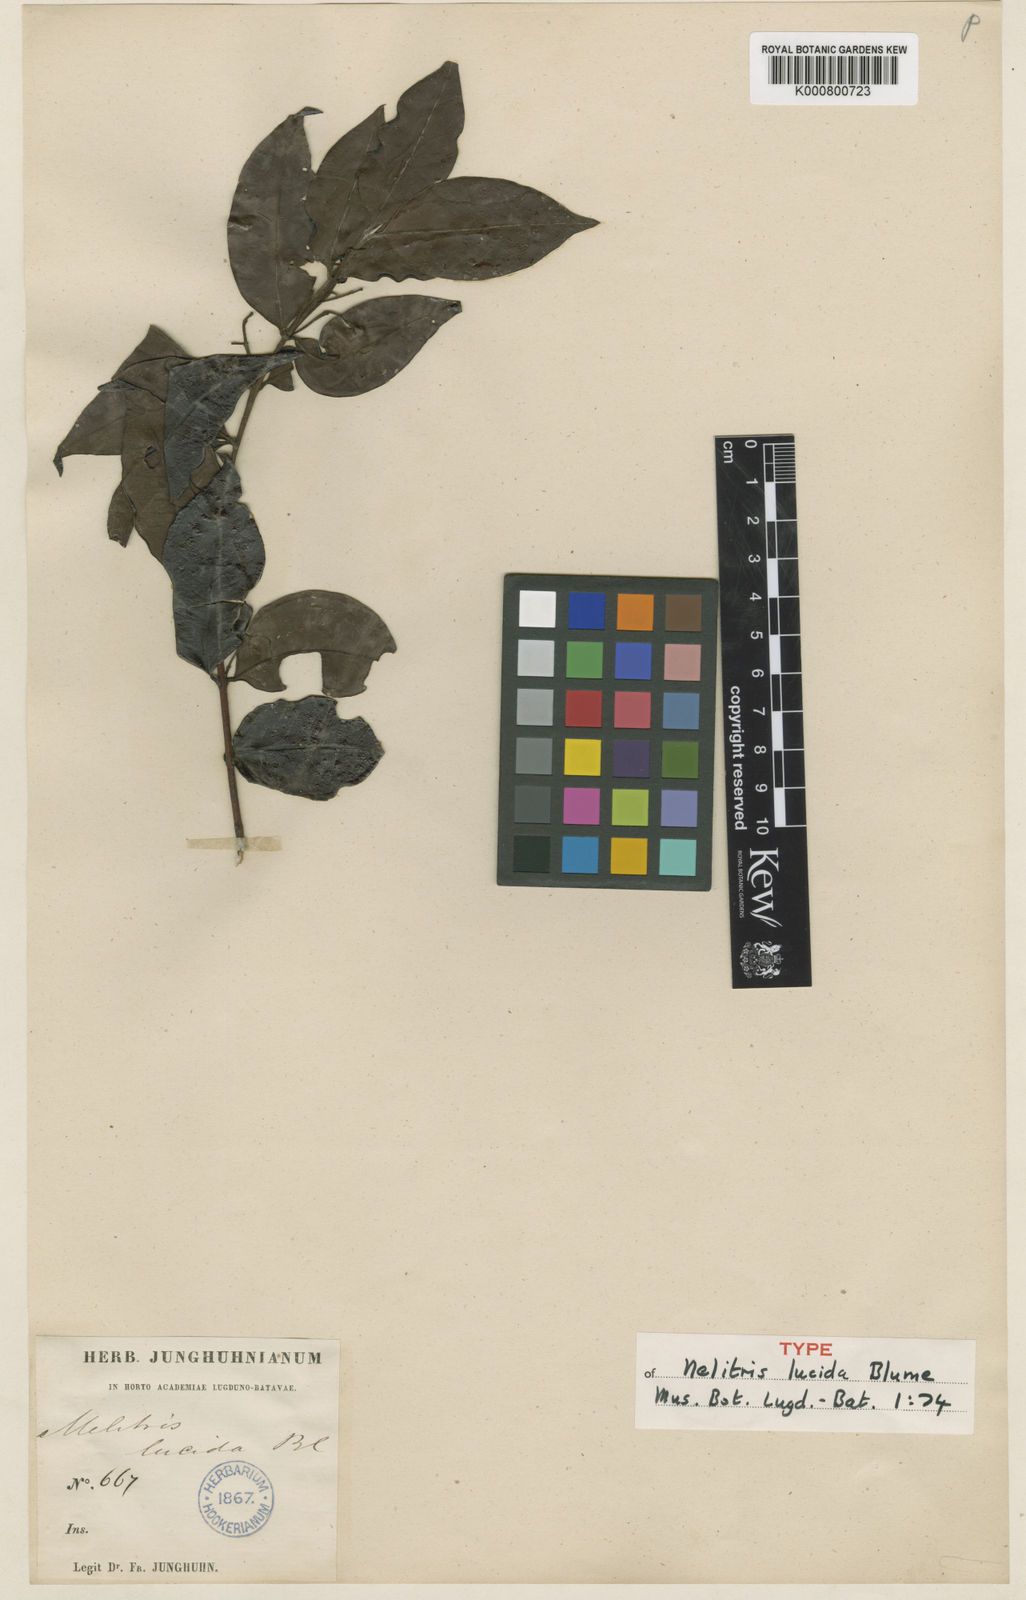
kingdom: Plantae
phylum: Tracheophyta
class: Magnoliopsida
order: Myrtales
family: Myrtaceae
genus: Decaspermum
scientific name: Decaspermum parviflorum
